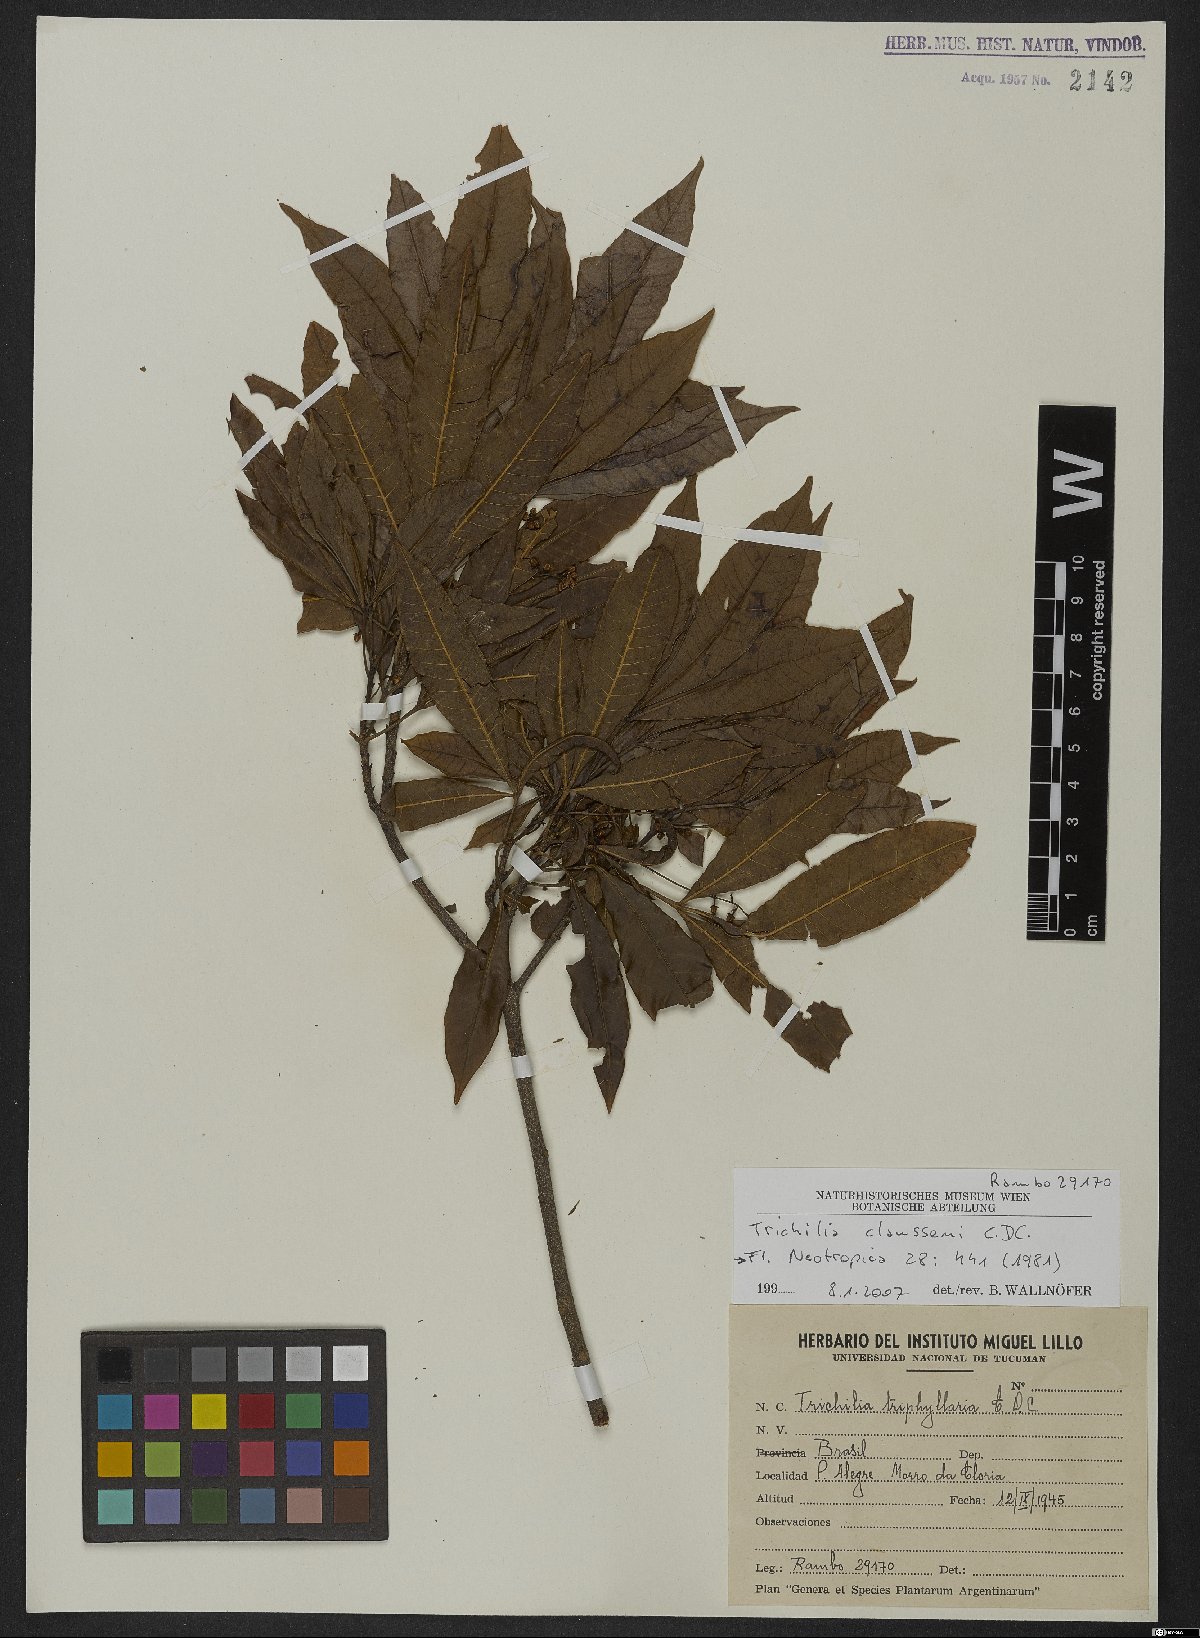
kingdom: Plantae
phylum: Tracheophyta
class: Magnoliopsida
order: Sapindales
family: Meliaceae
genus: Trichilia
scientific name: Trichilia claussenii
